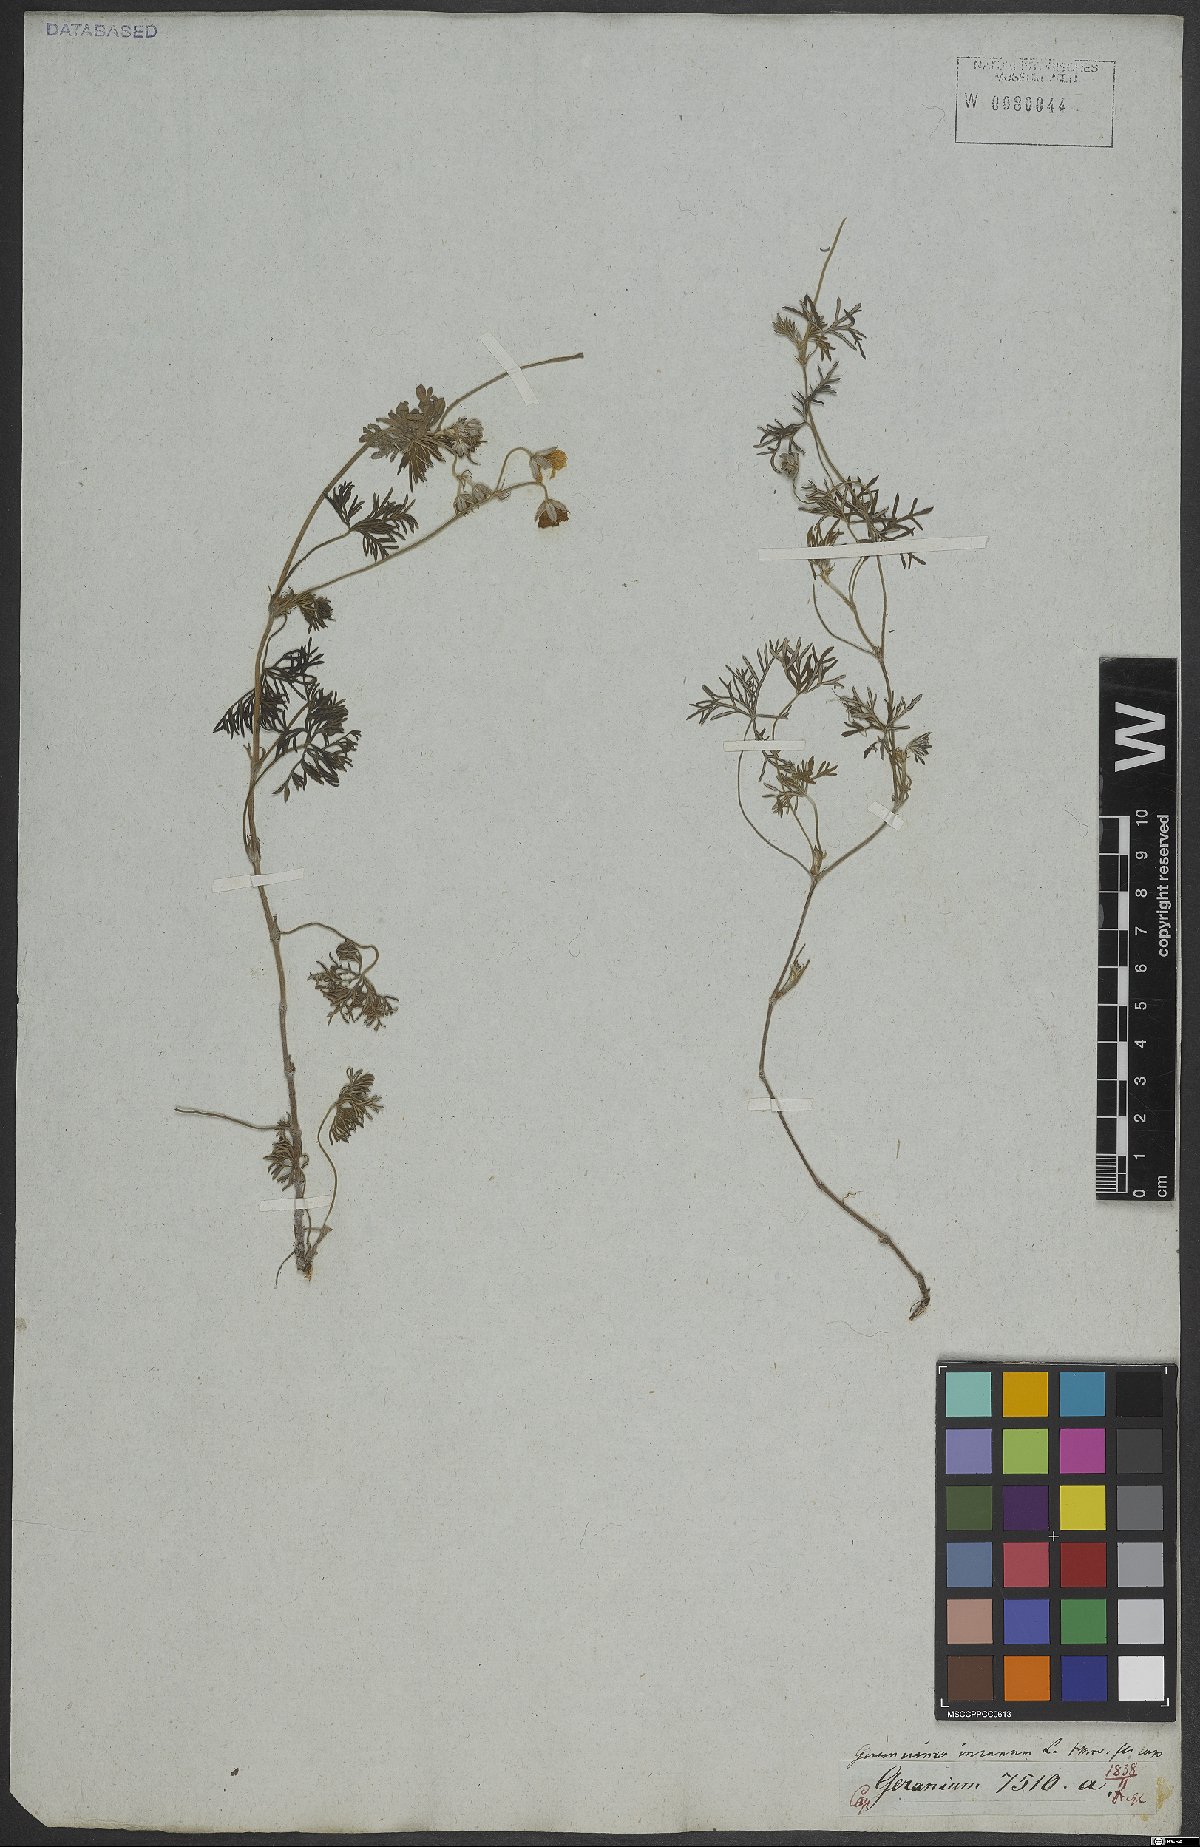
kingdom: Plantae
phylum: Tracheophyta
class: Magnoliopsida
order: Geraniales
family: Geraniaceae
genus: Geranium
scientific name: Geranium incanum
